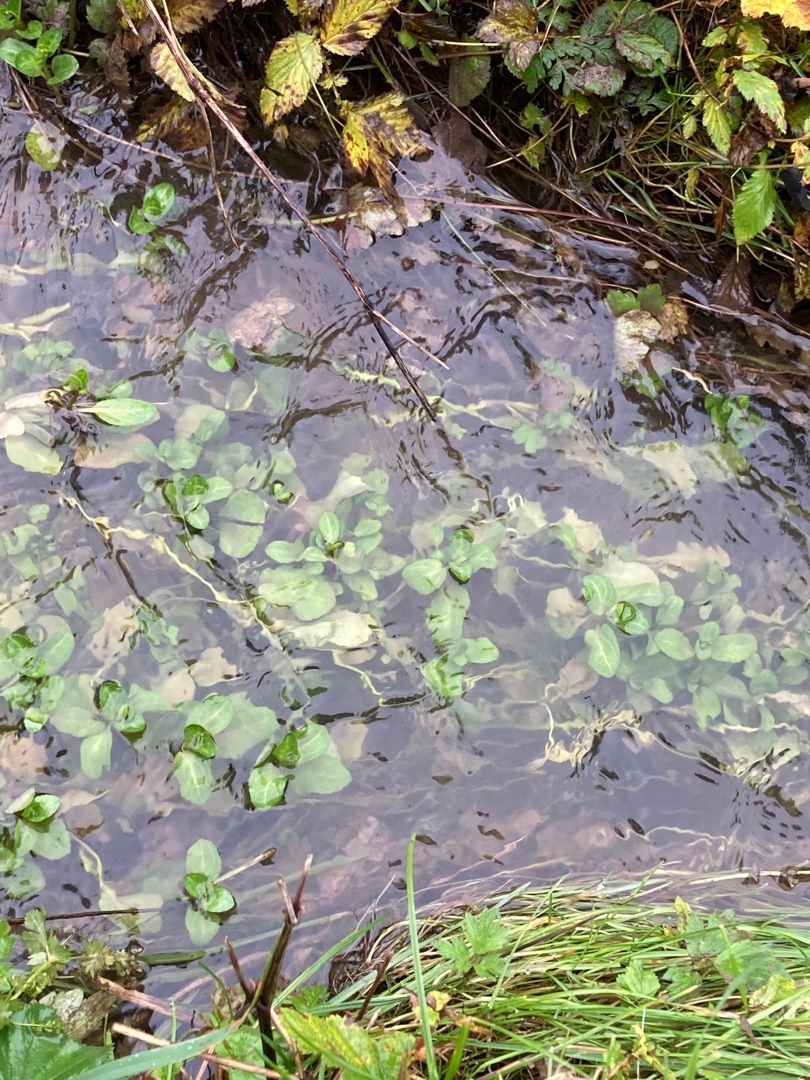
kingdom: Plantae
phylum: Tracheophyta
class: Magnoliopsida
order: Lamiales
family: Plantaginaceae
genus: Veronica
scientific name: Veronica beccabunga
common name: Tykbladet ærenpris
